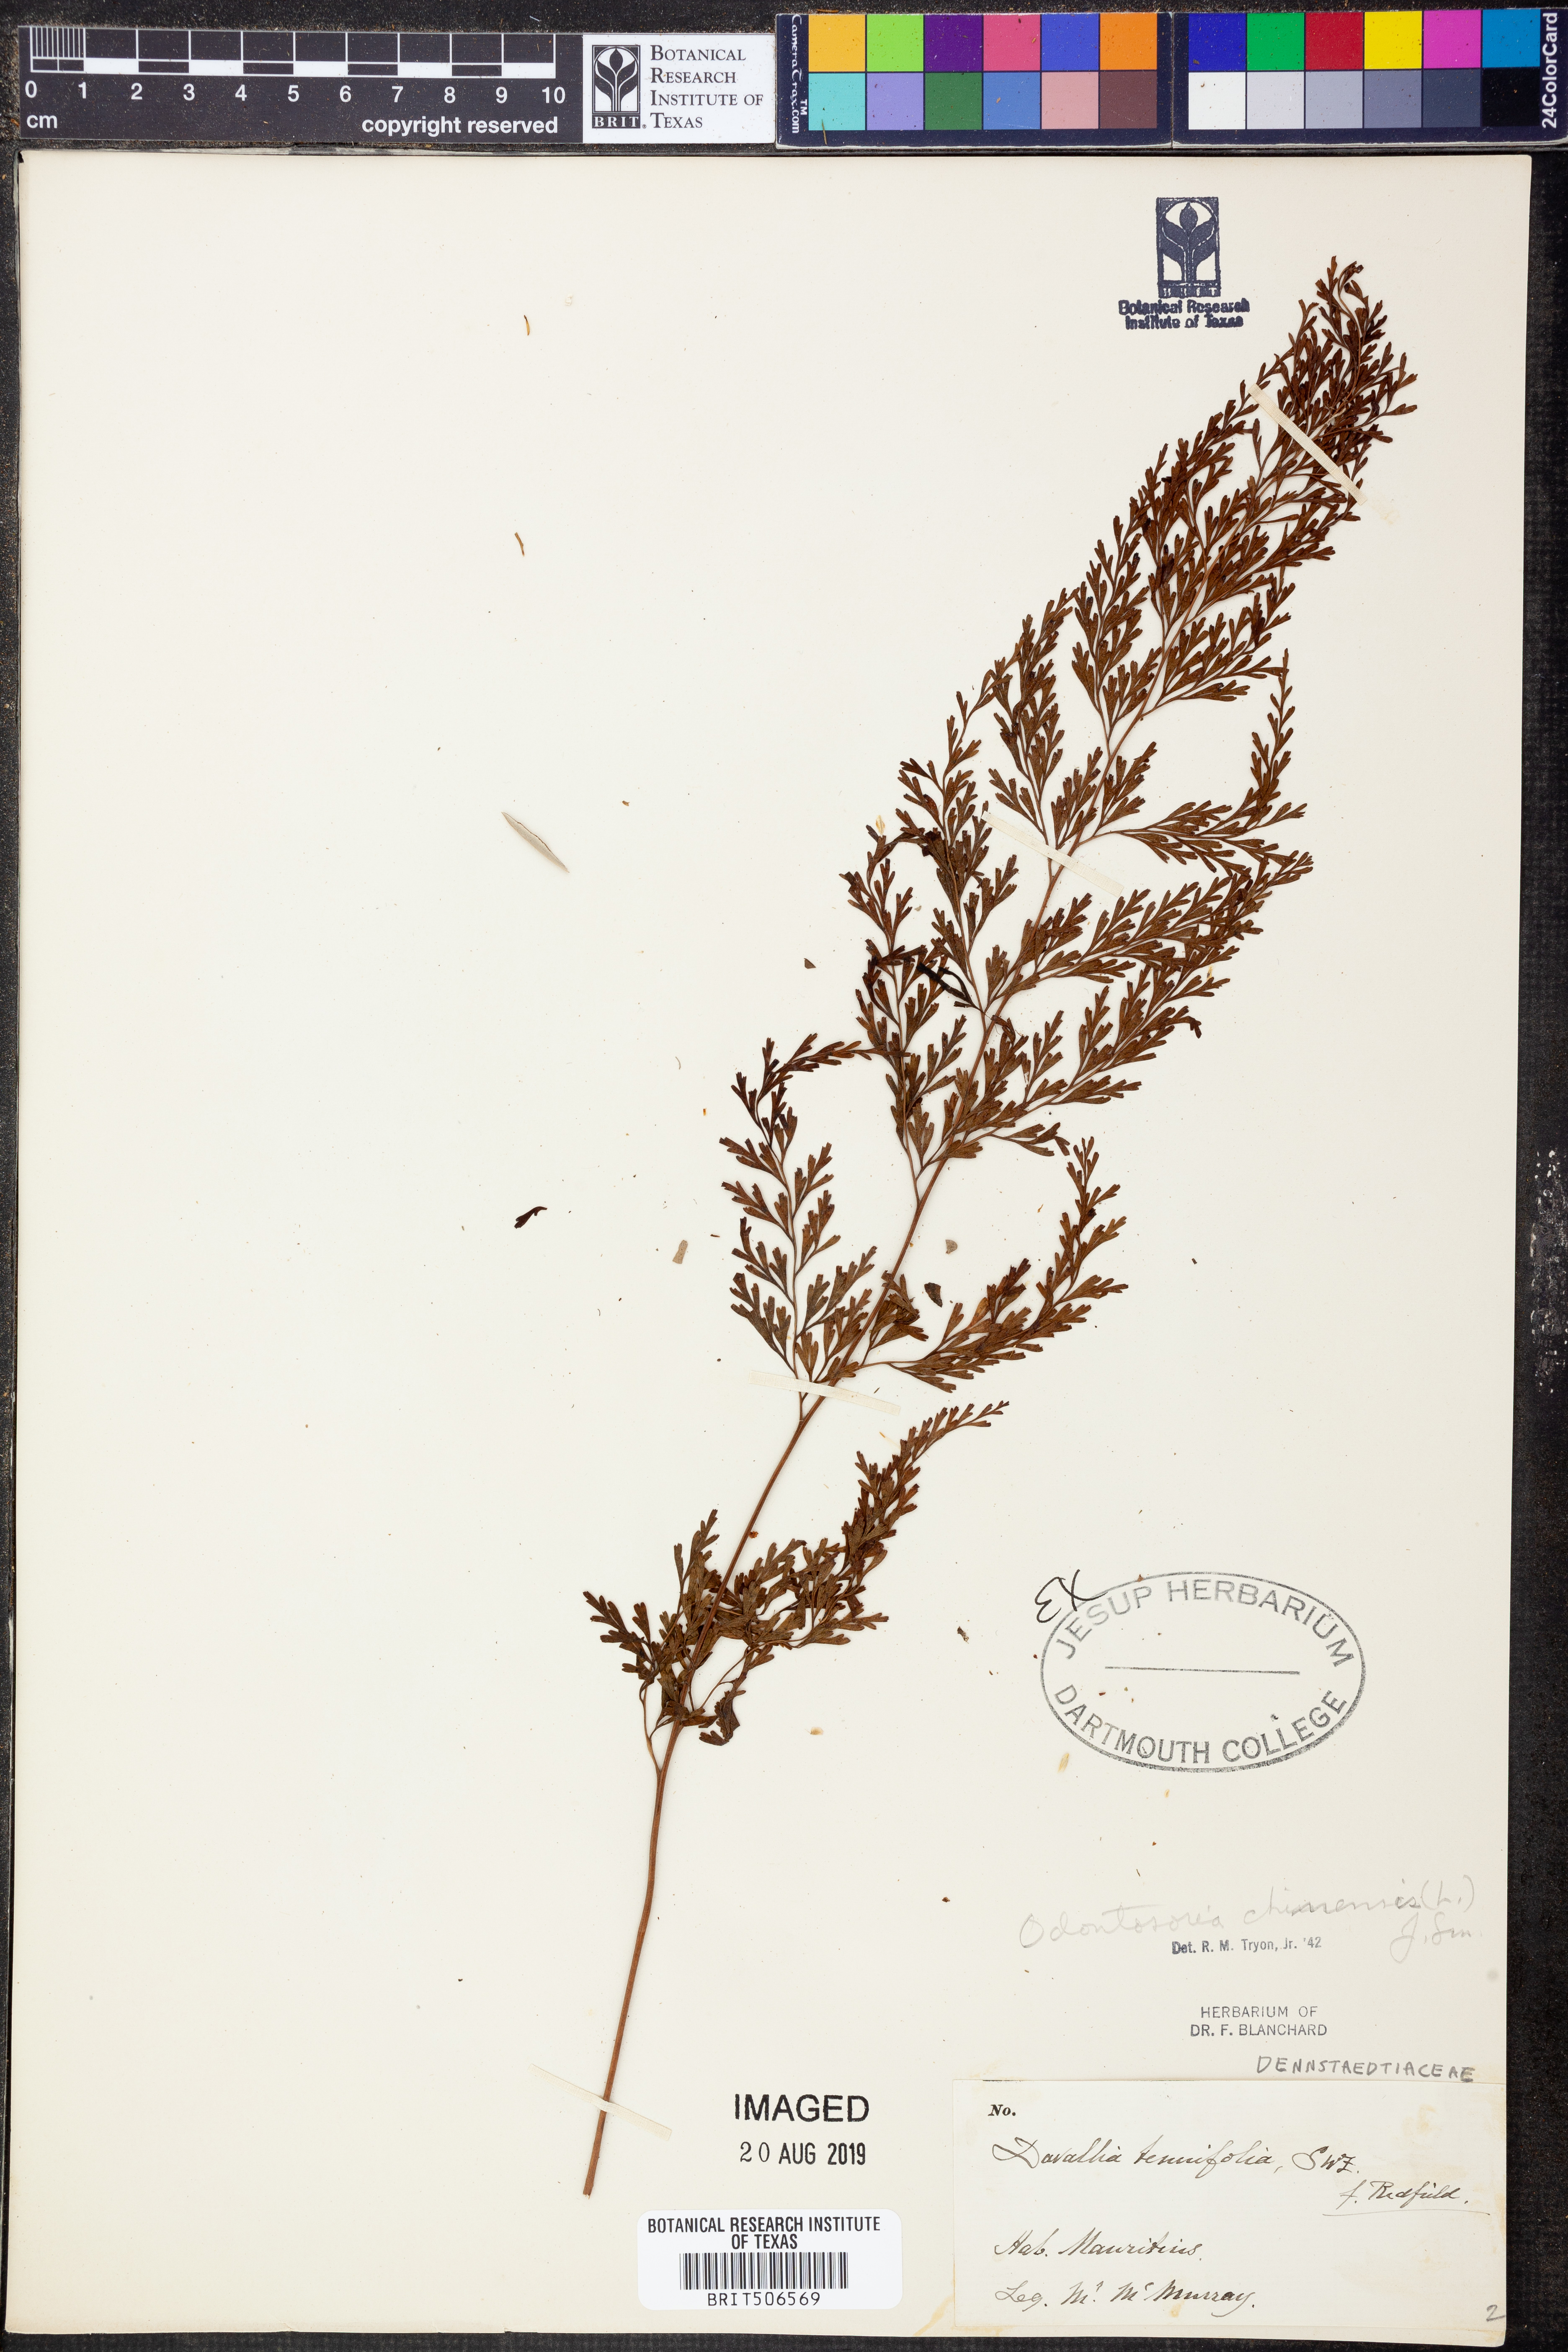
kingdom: Plantae
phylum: Tracheophyta
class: Polypodiopsida
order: Polypodiales
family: Lindsaeaceae
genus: Odontosoria
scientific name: Odontosoria chinensis
